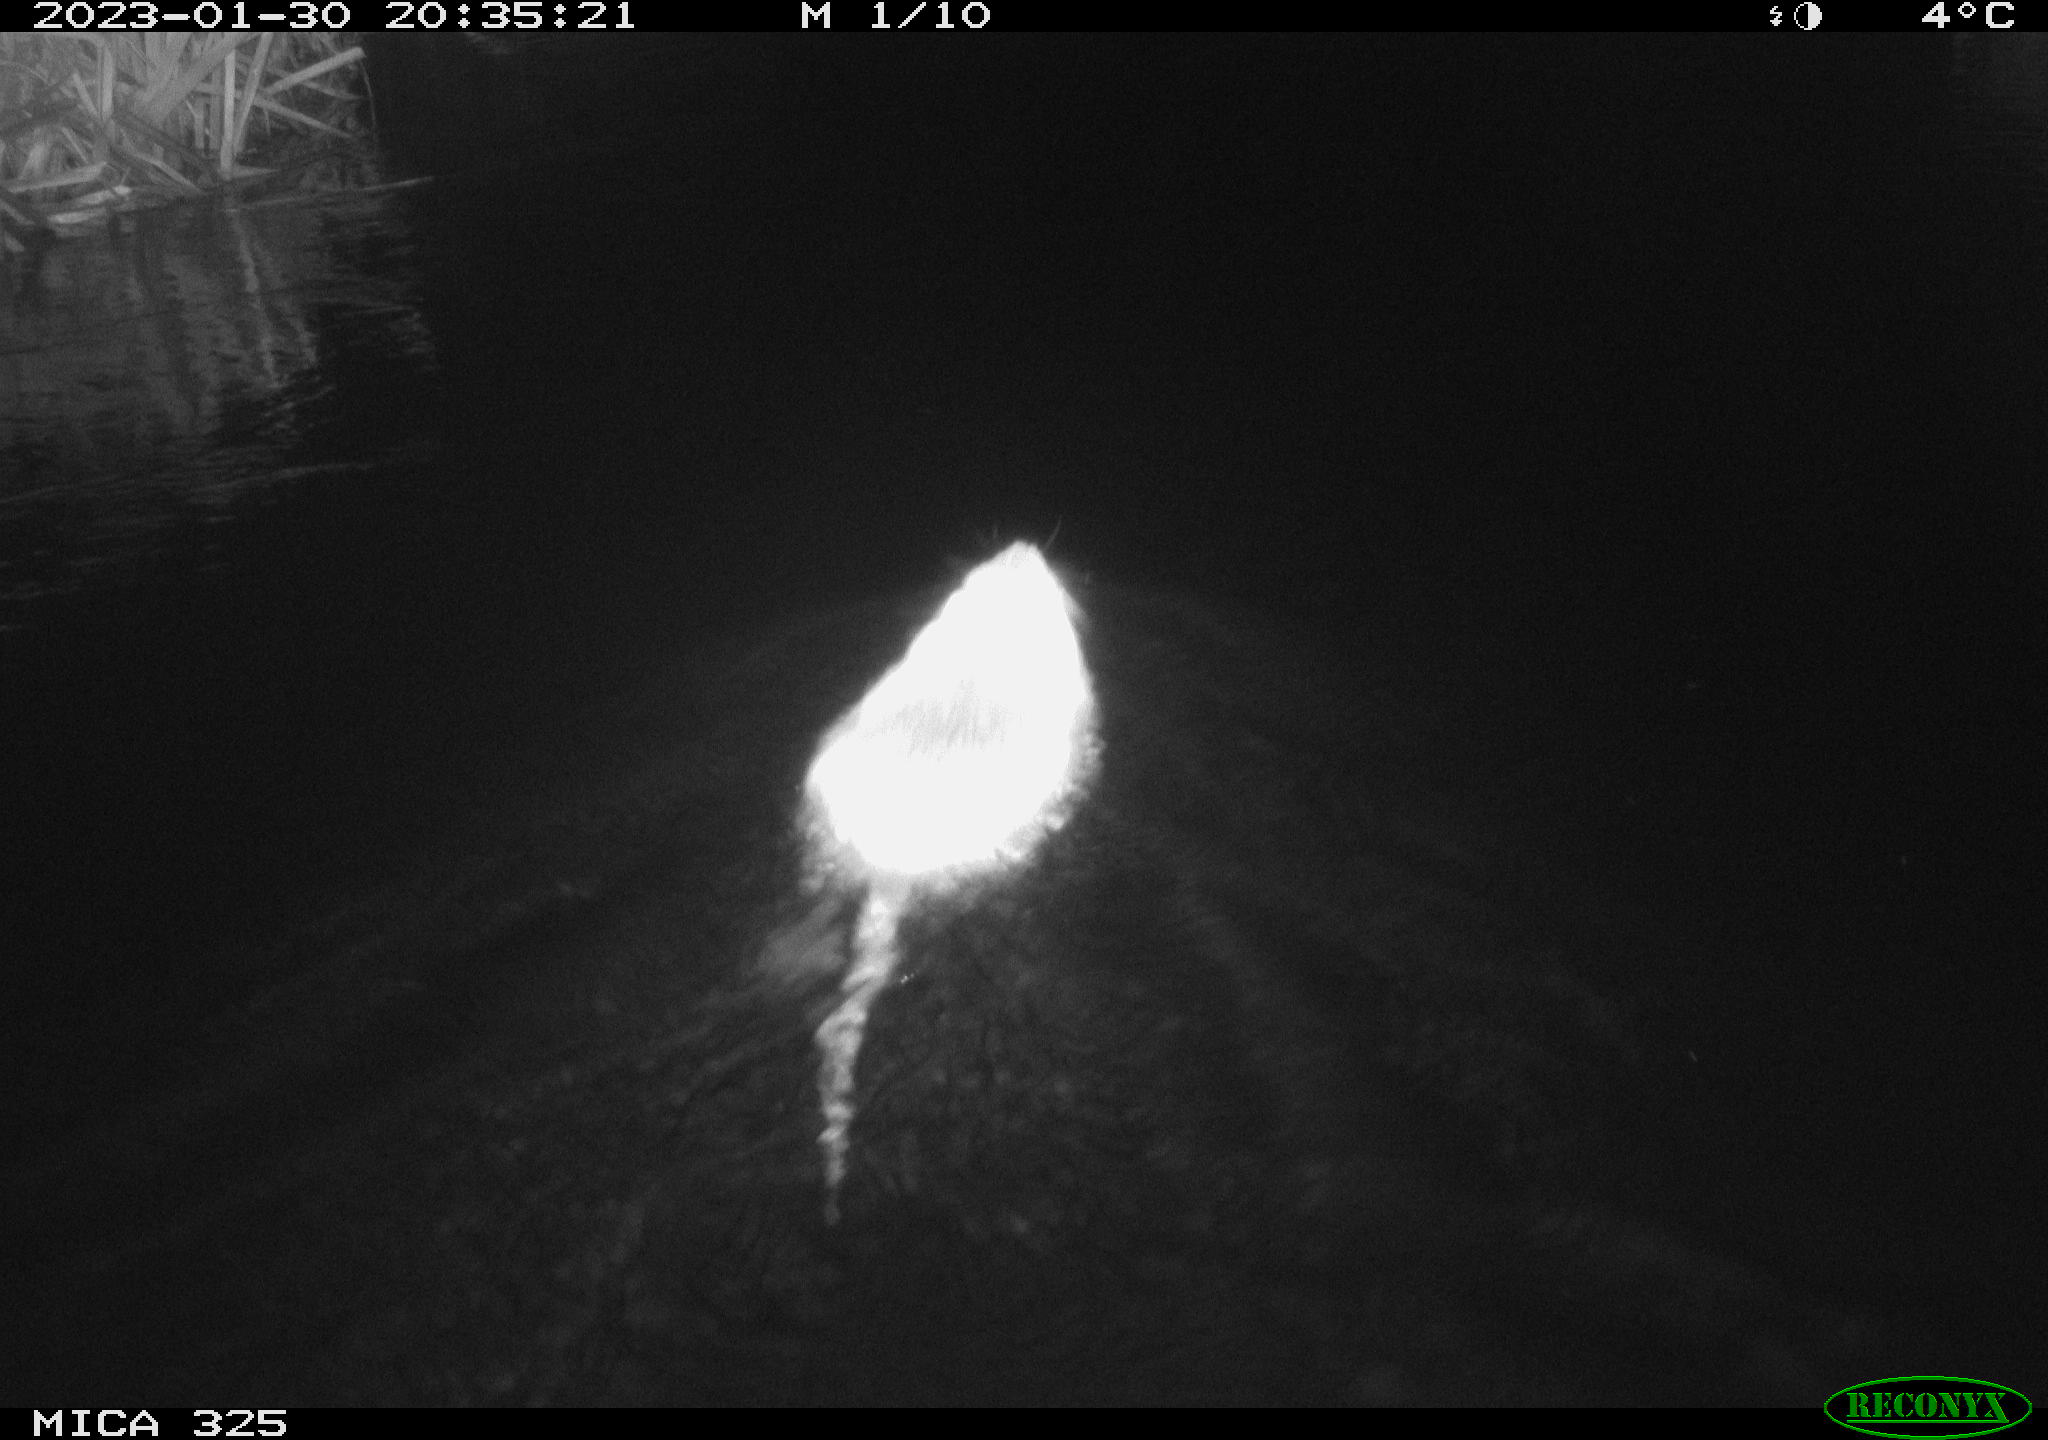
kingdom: Animalia
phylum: Chordata
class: Mammalia
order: Rodentia
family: Myocastoridae
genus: Myocastor
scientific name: Myocastor coypus
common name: Coypu
